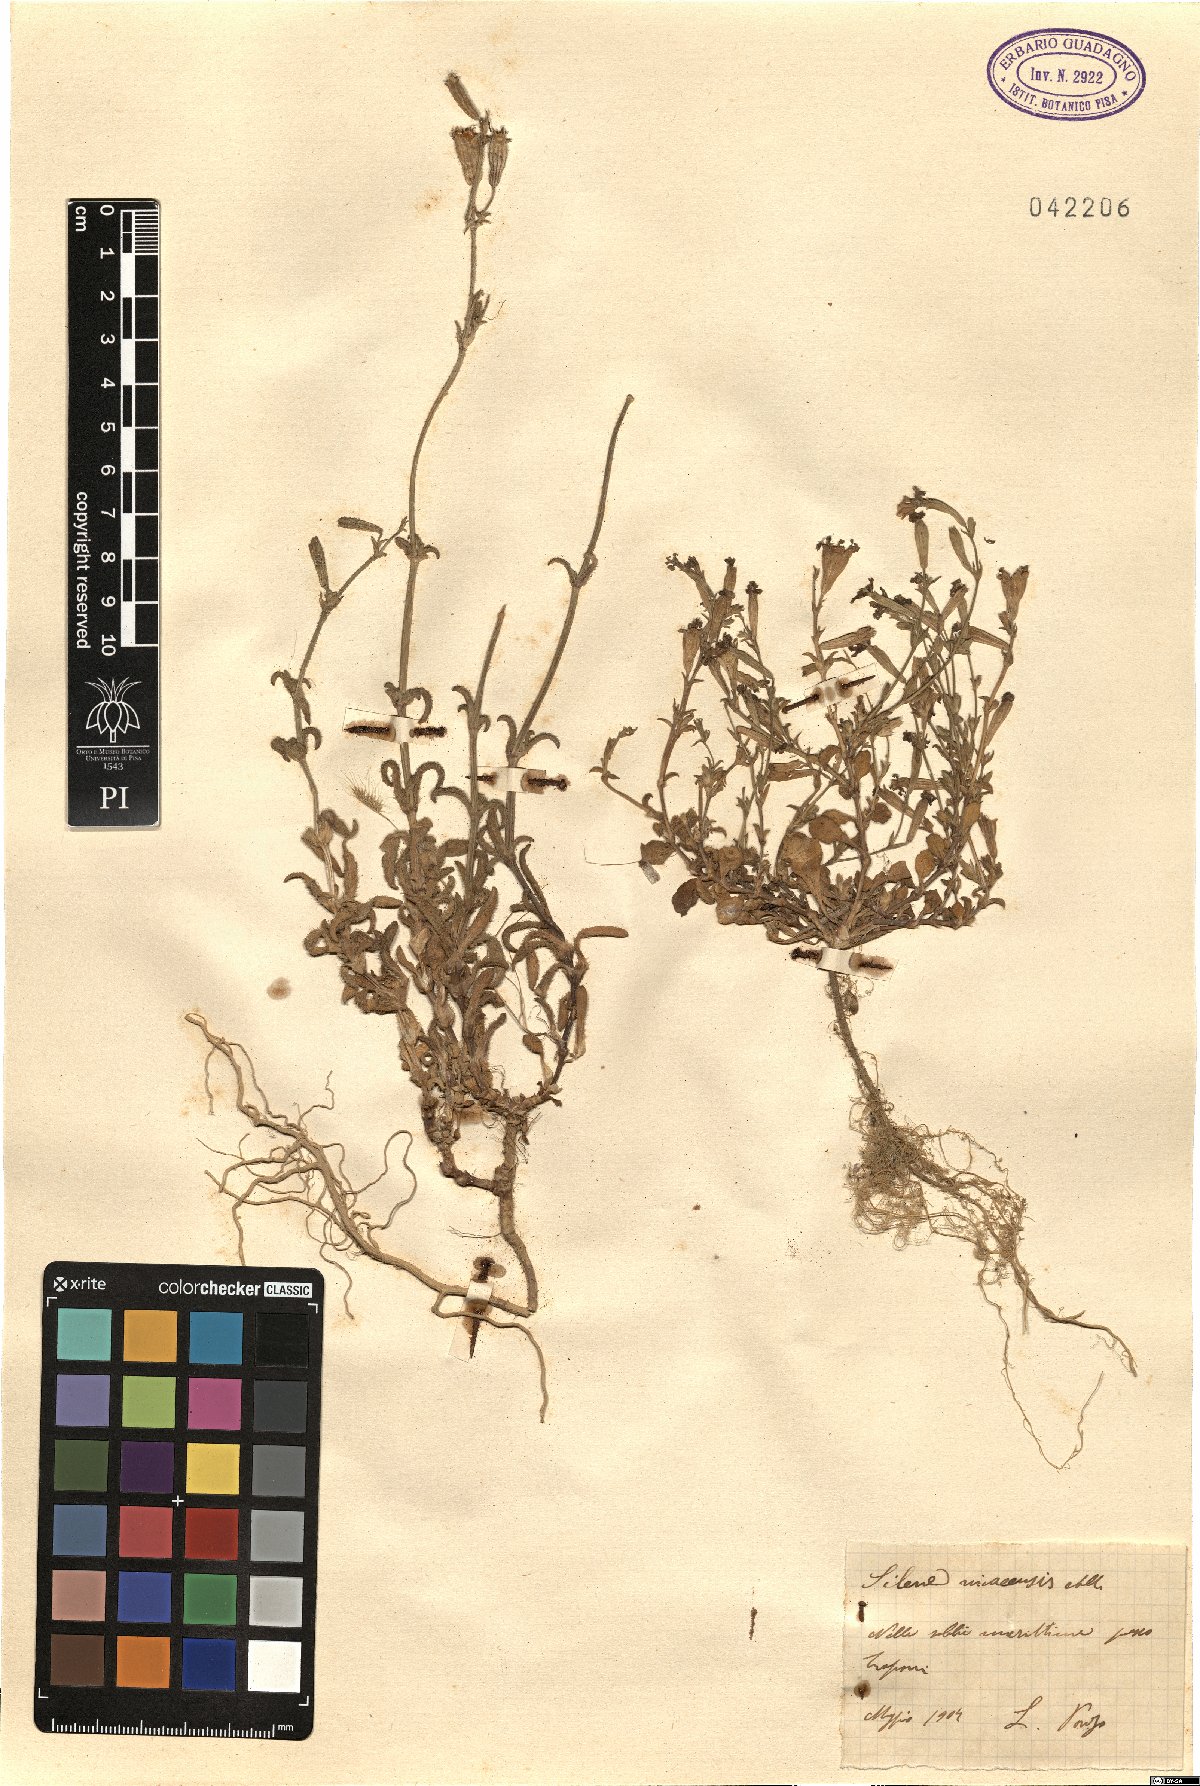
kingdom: Plantae
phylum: Tracheophyta
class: Magnoliopsida
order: Caryophyllales
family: Caryophyllaceae
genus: Silene
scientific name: Silene nicaeensis
